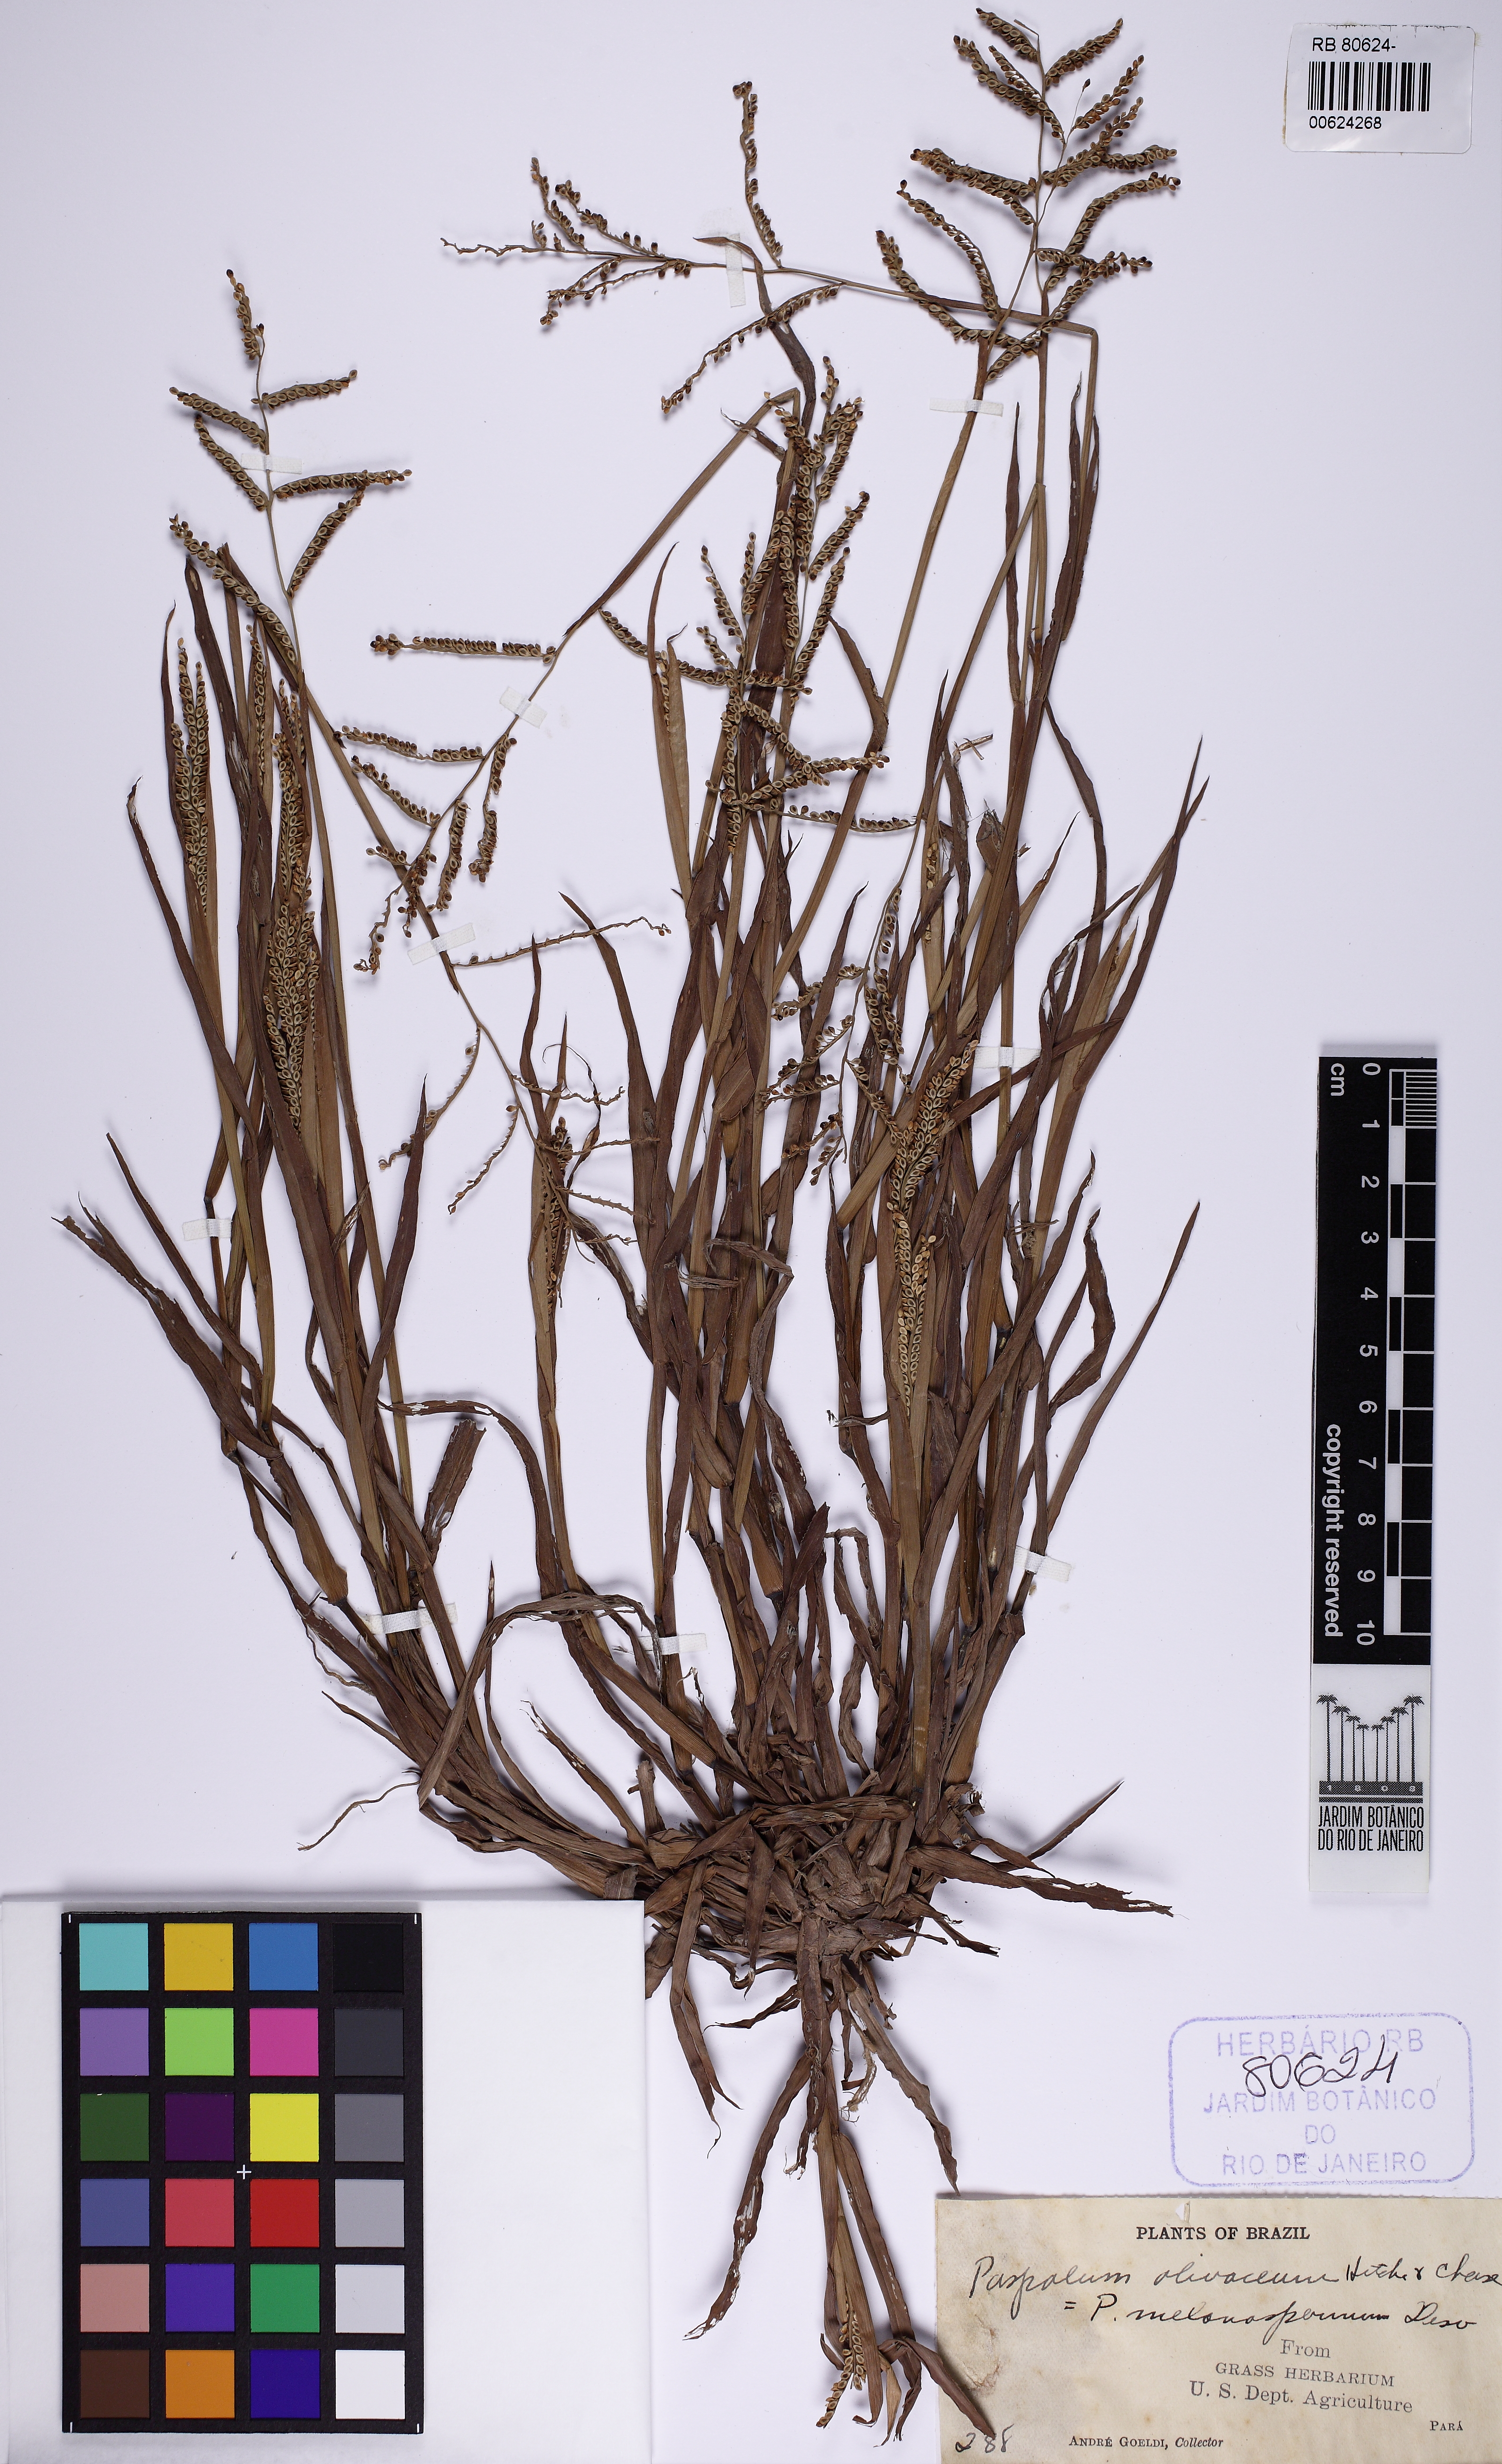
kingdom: Plantae
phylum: Tracheophyta
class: Liliopsida
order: Poales
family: Poaceae
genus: Paspalum
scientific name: Paspalum melanospermum
